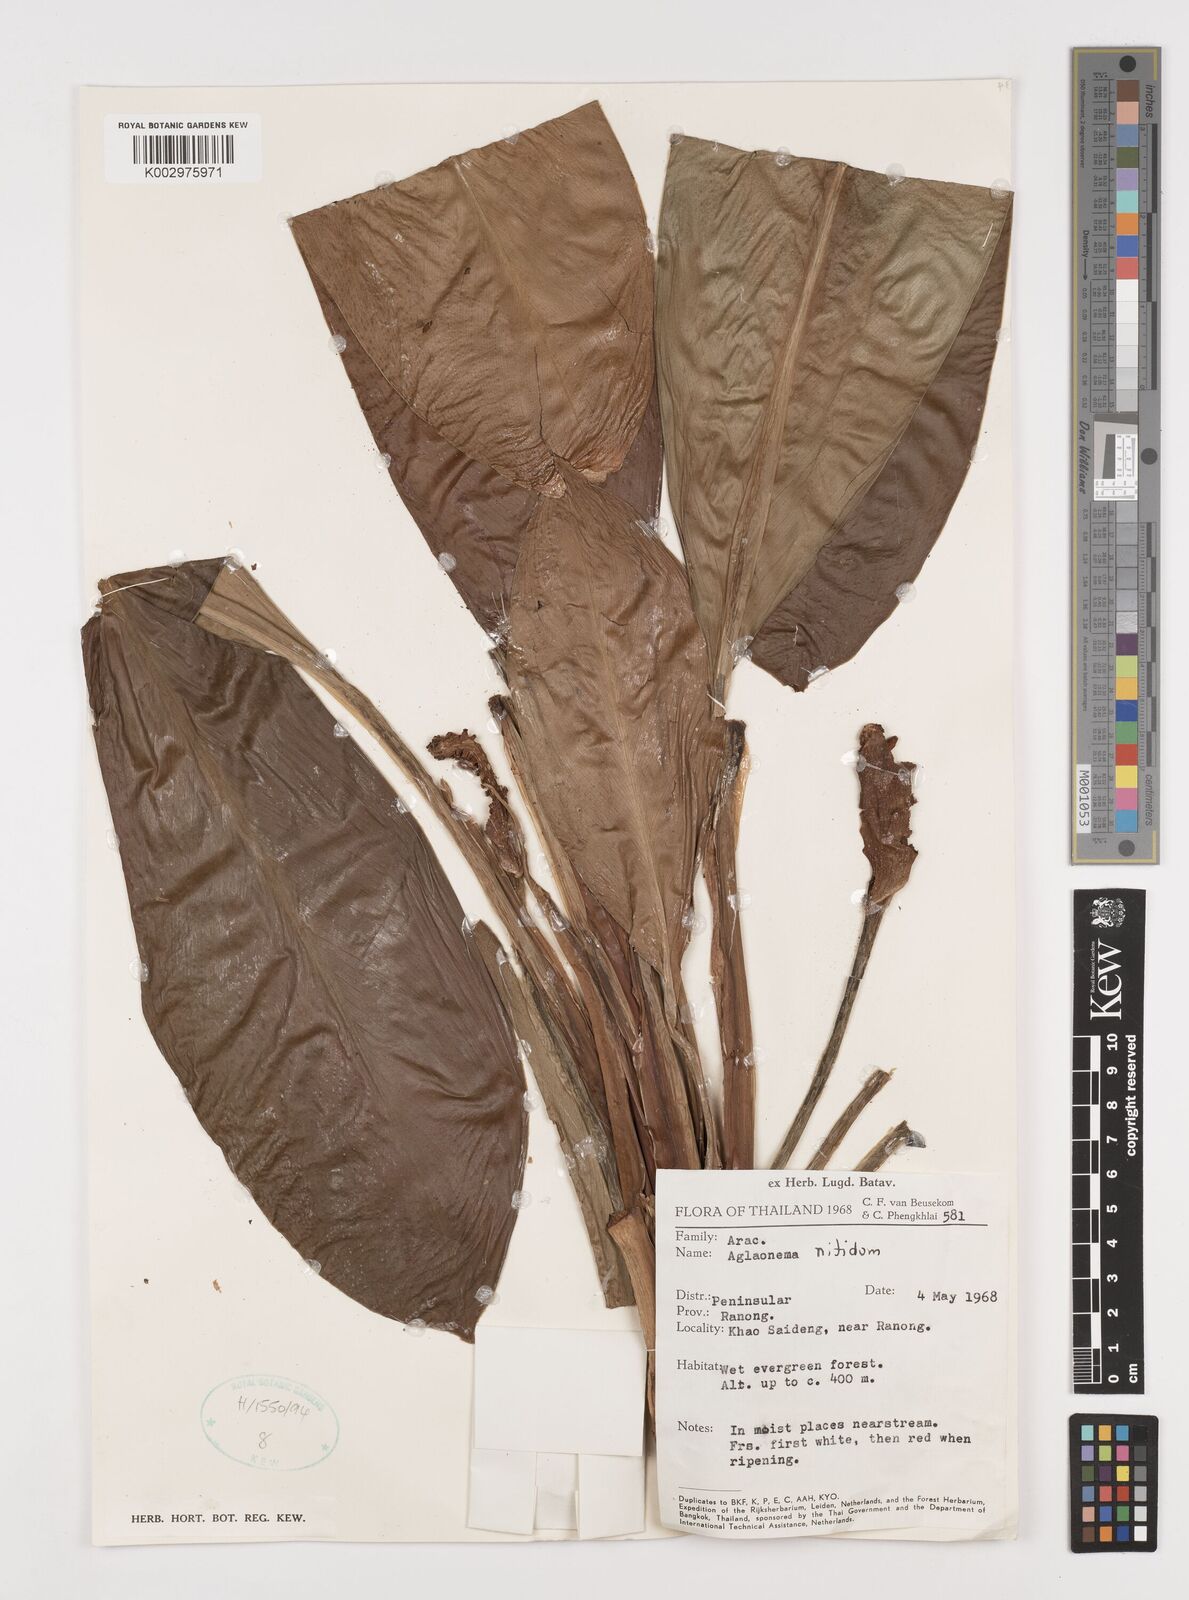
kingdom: Plantae
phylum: Tracheophyta
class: Liliopsida
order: Alismatales
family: Araceae
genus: Aglaonema
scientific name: Aglaonema nitidum
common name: Aglaonema aroid
